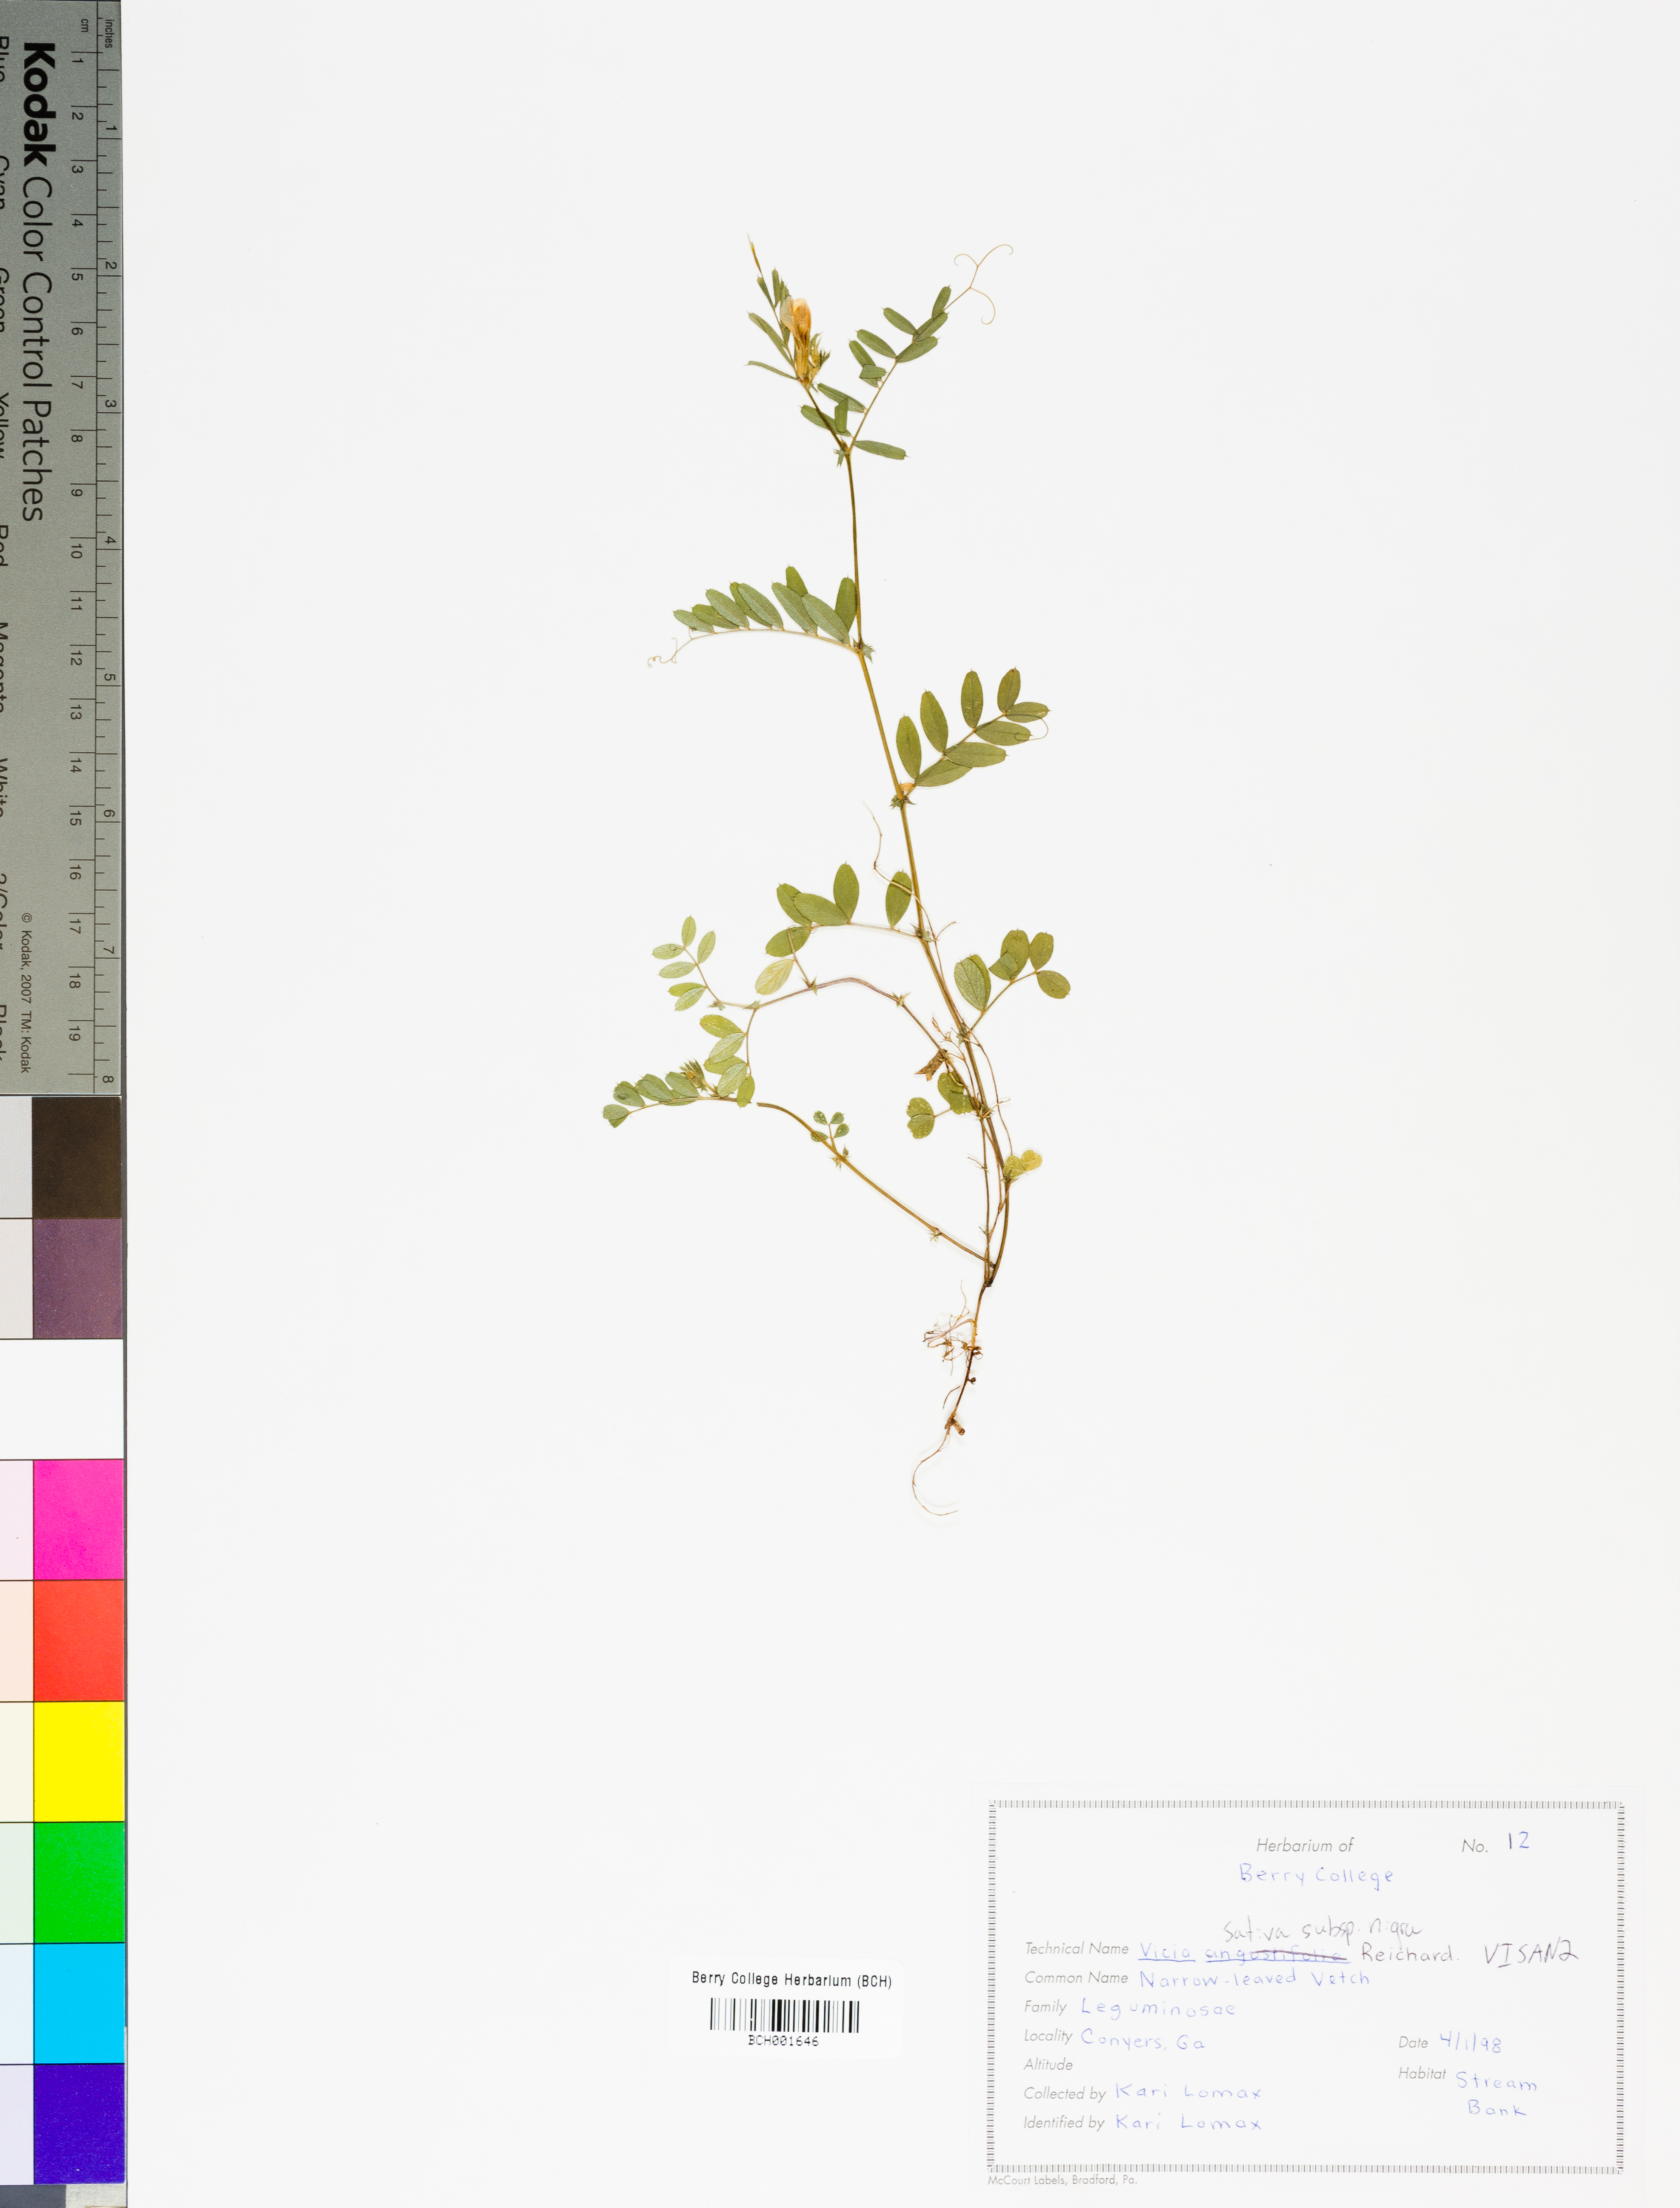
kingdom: Plantae
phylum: Tracheophyta
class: Magnoliopsida
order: Fabales
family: Fabaceae
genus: Vicia
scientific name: Vicia sativa
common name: Garden vetch
